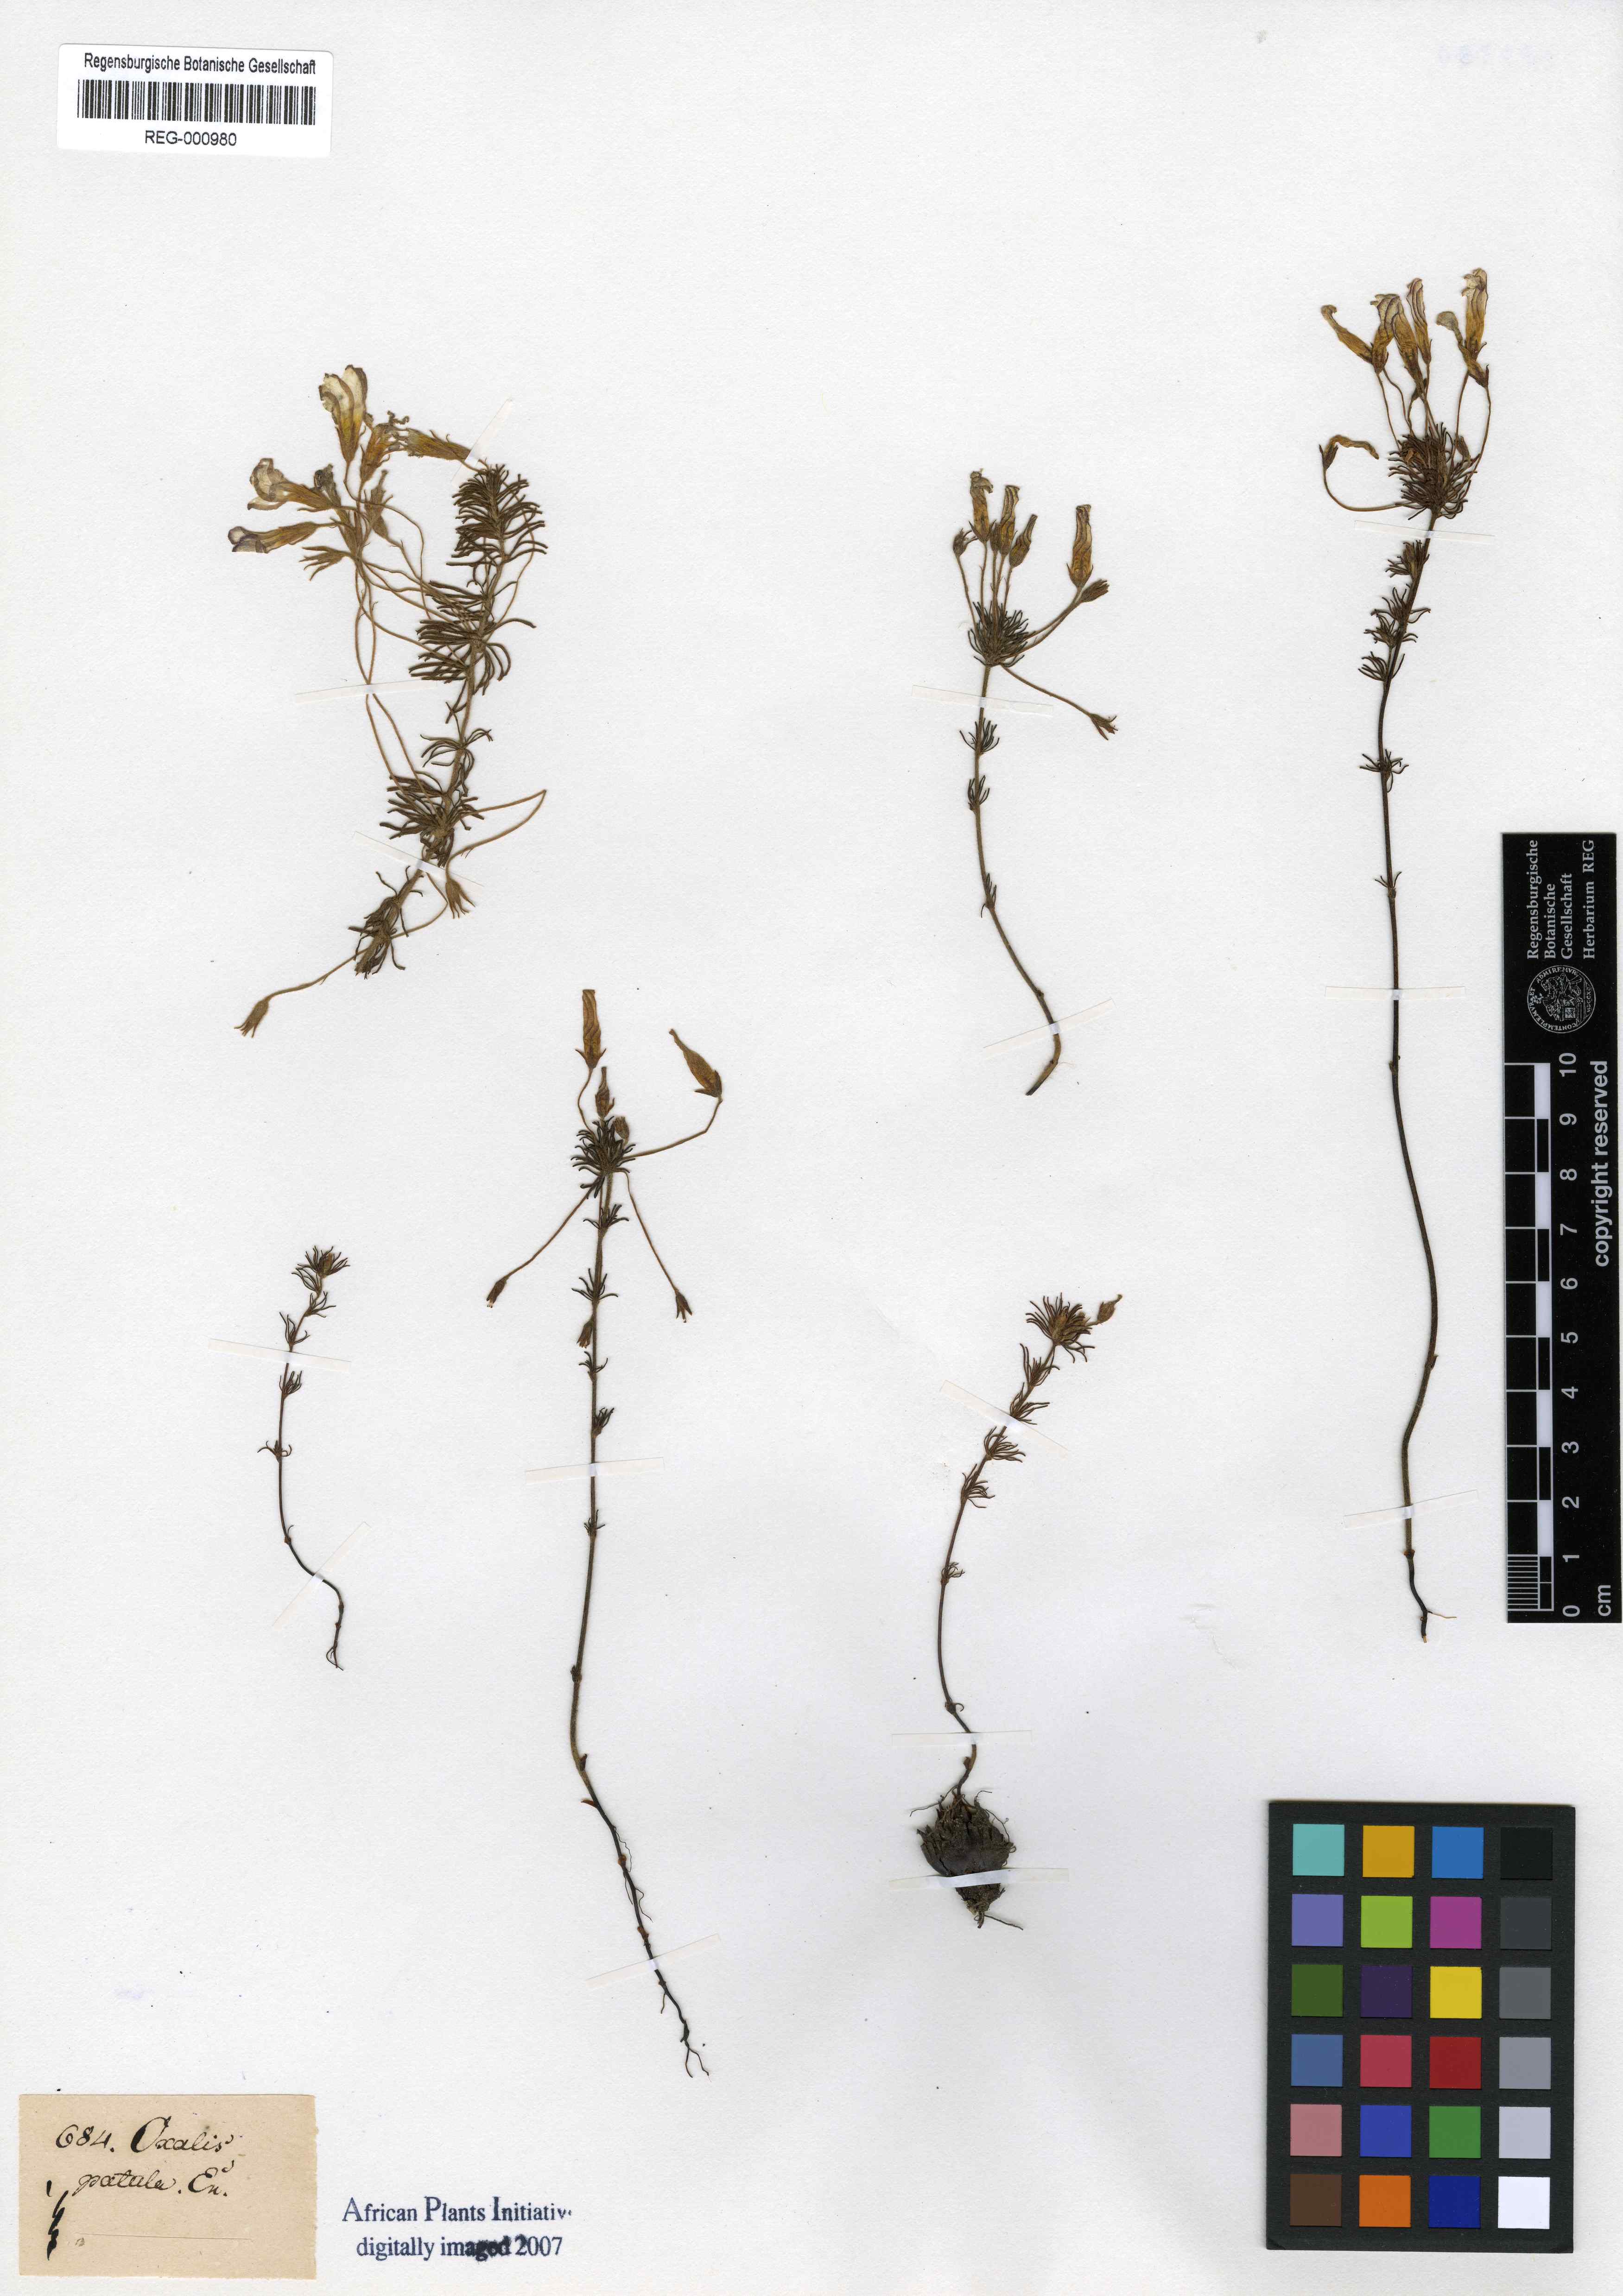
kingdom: Plantae
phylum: Tracheophyta
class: Magnoliopsida
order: Oxalidales
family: Oxalidaceae
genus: Oxalis
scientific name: Oxalis tenuifolia
